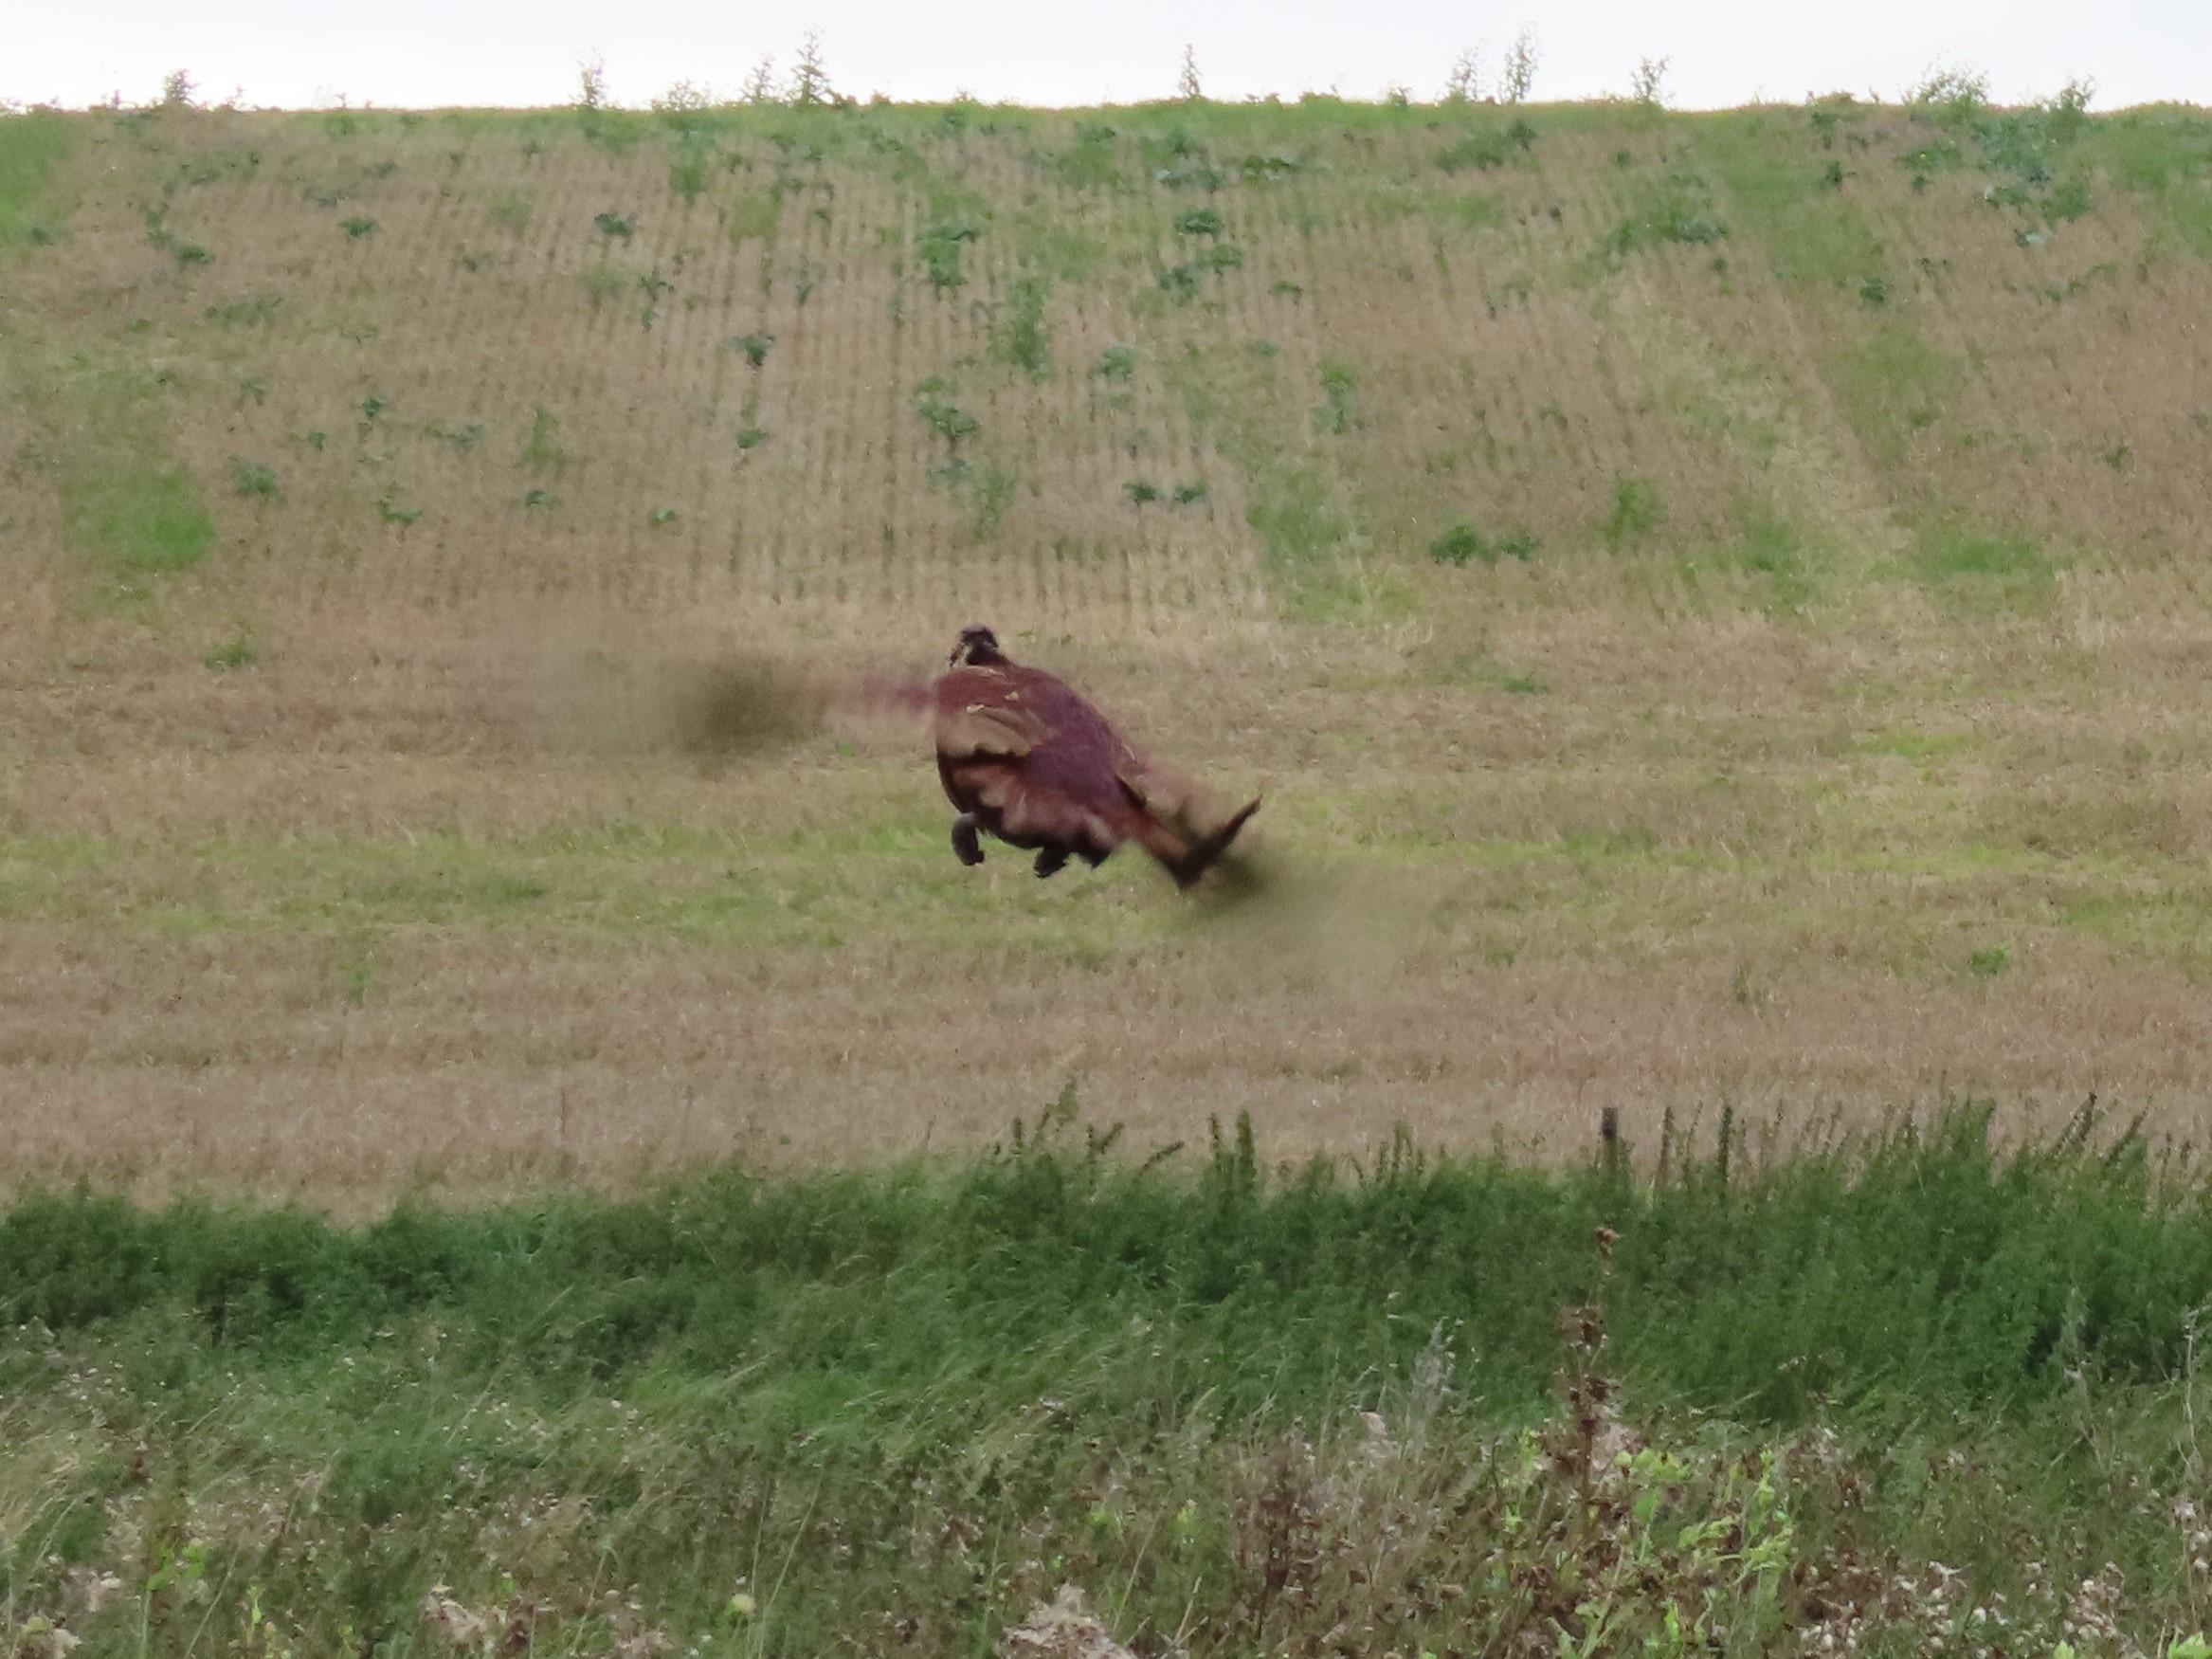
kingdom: Animalia
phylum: Chordata
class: Aves
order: Galliformes
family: Phasianidae
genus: Phasianus
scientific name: Phasianus colchicus
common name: Fasan
